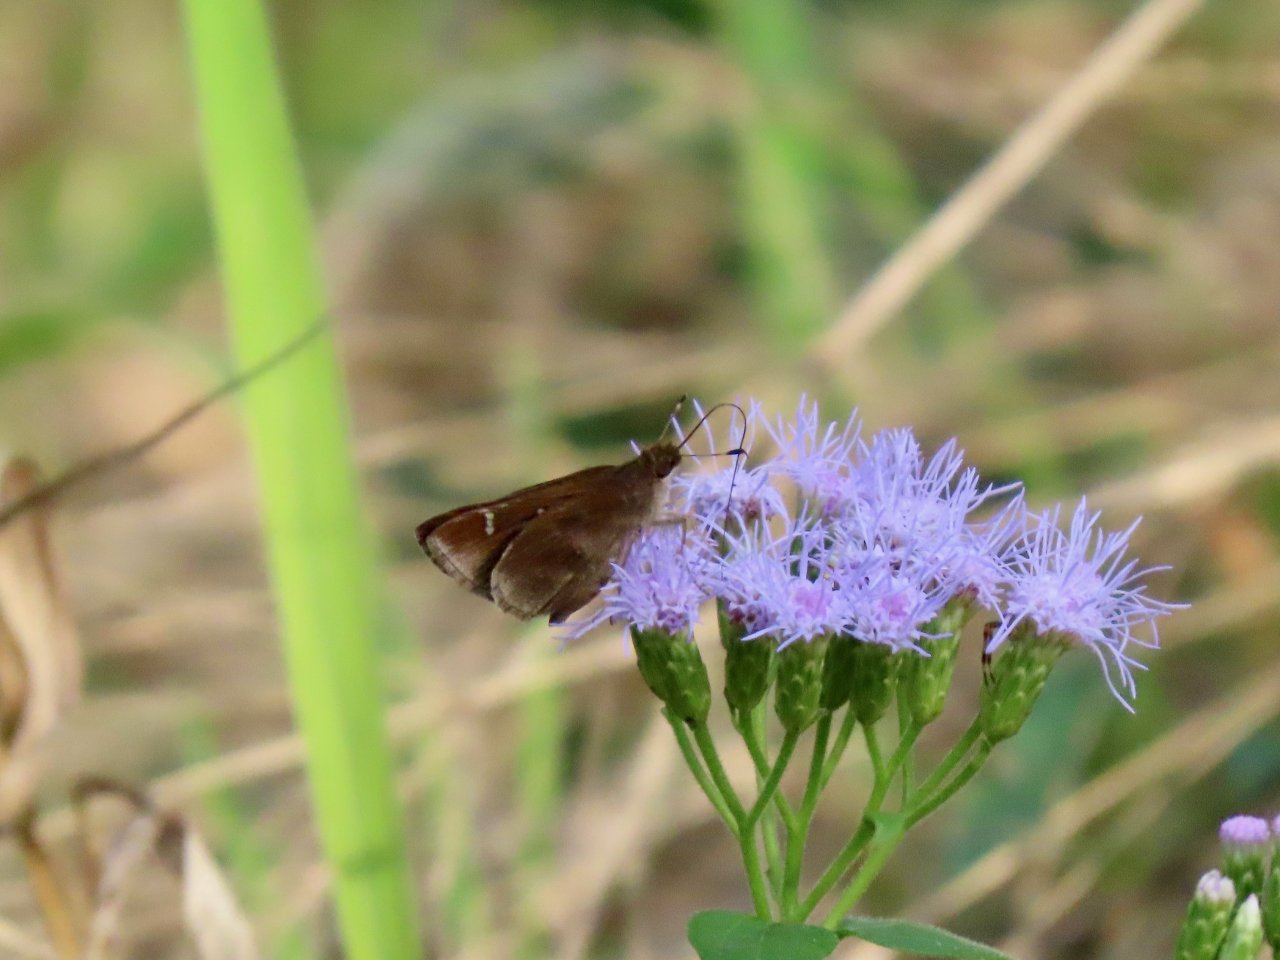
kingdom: Animalia
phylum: Arthropoda
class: Insecta
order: Lepidoptera
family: Hesperiidae
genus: Lerema
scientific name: Lerema accius
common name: Clouded Skipper
